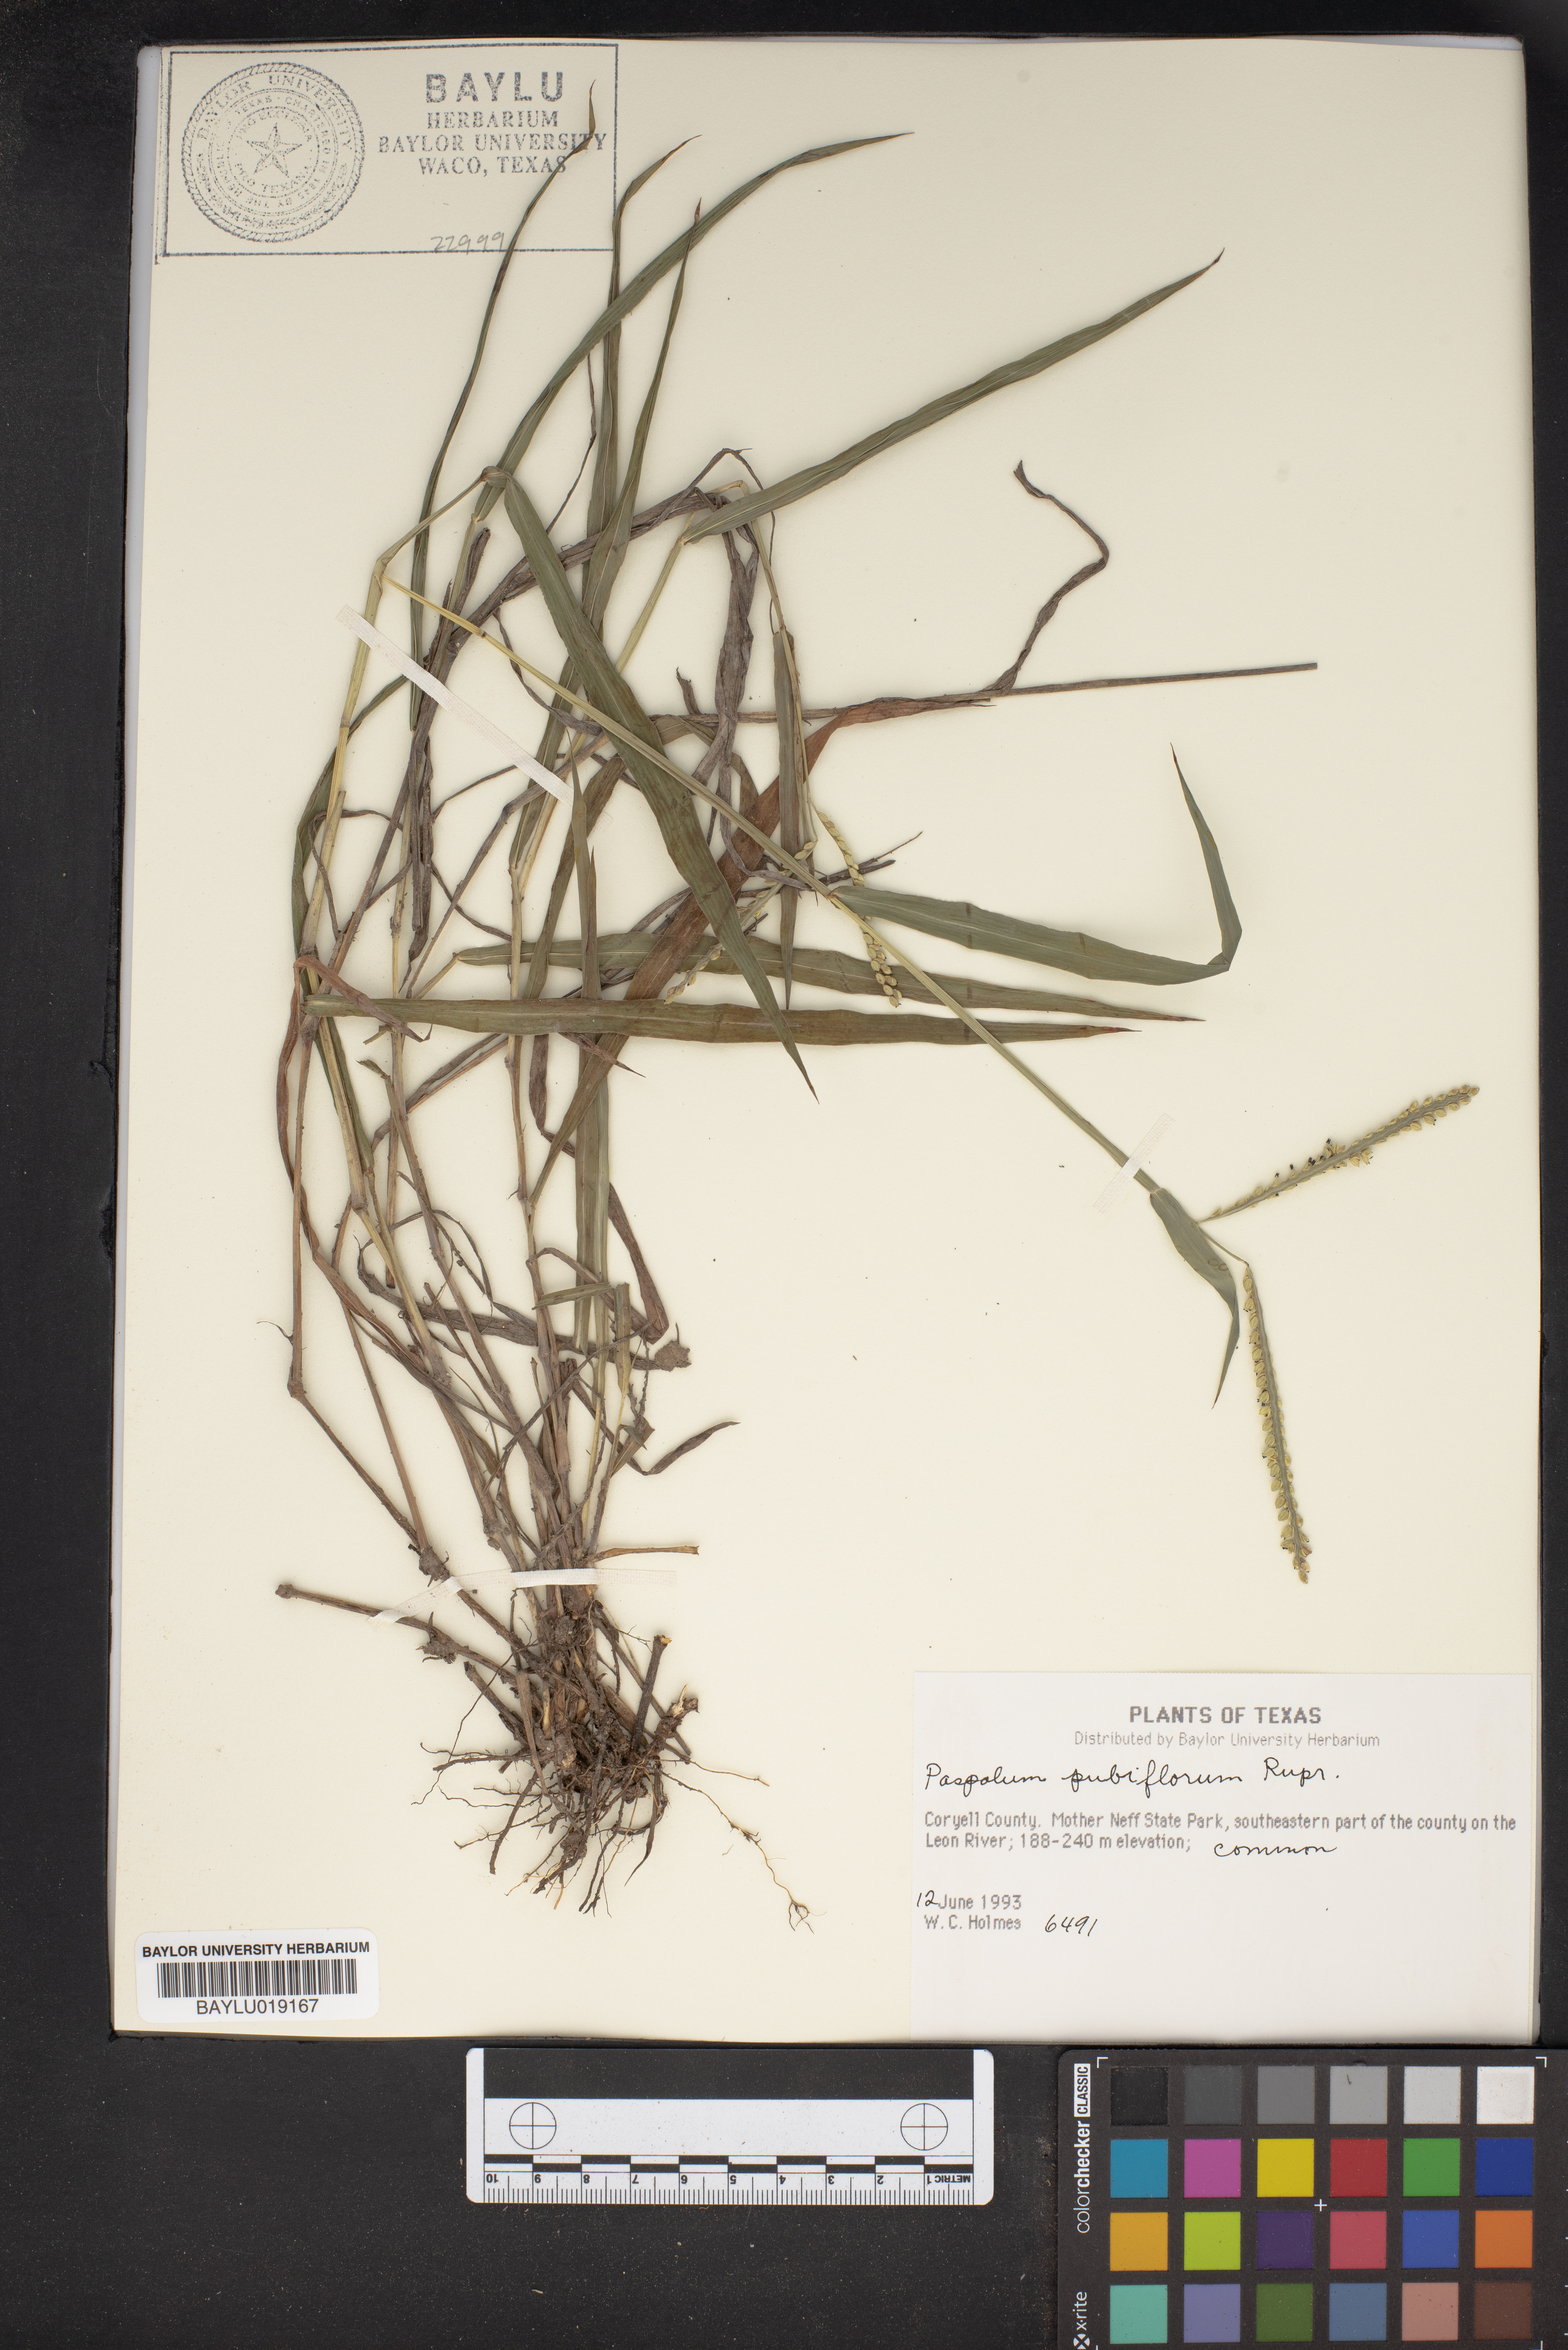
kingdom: Plantae
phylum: Tracheophyta
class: Liliopsida
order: Poales
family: Poaceae
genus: Paspalum
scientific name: Paspalum pubiflorum
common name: Hairy-seed paspalum
